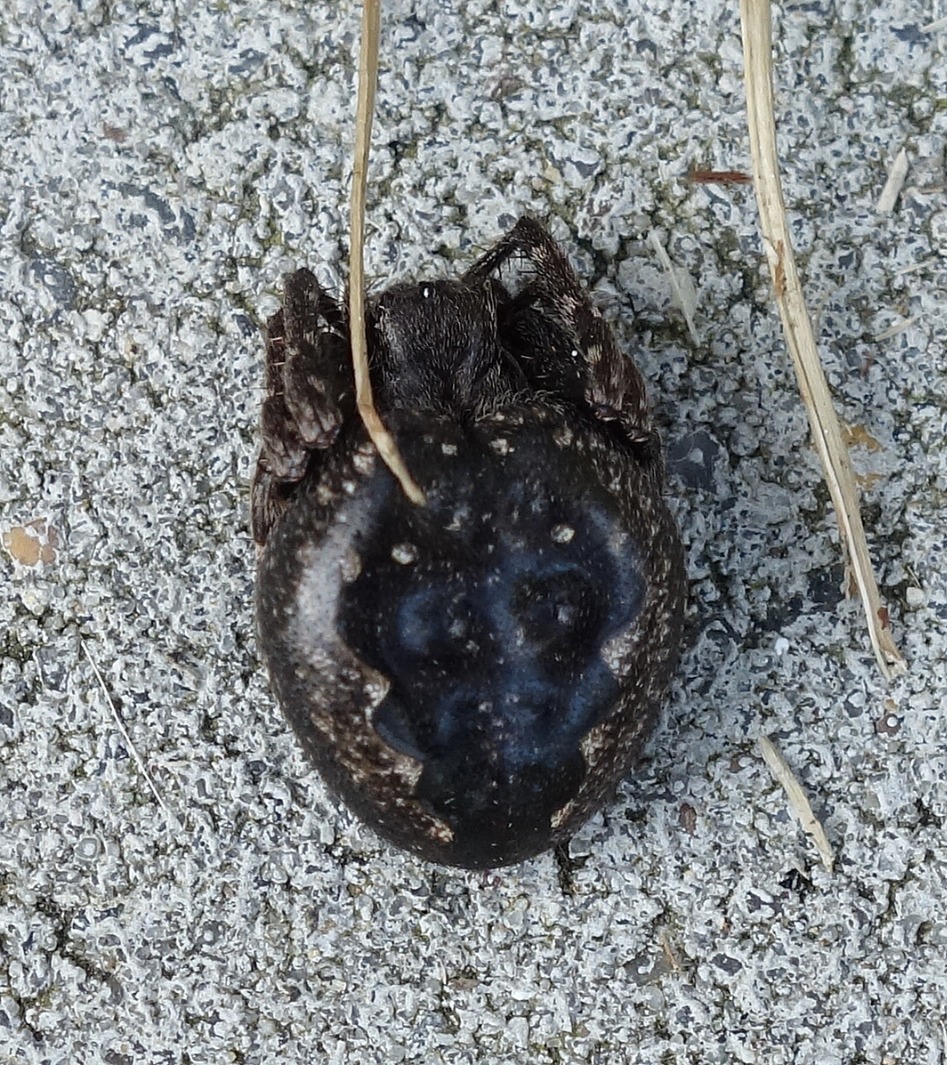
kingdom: Animalia
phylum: Arthropoda
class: Arachnida
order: Araneae
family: Araneidae
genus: Nuctenea
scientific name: Nuctenea umbratica
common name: Flad hjulspinder
